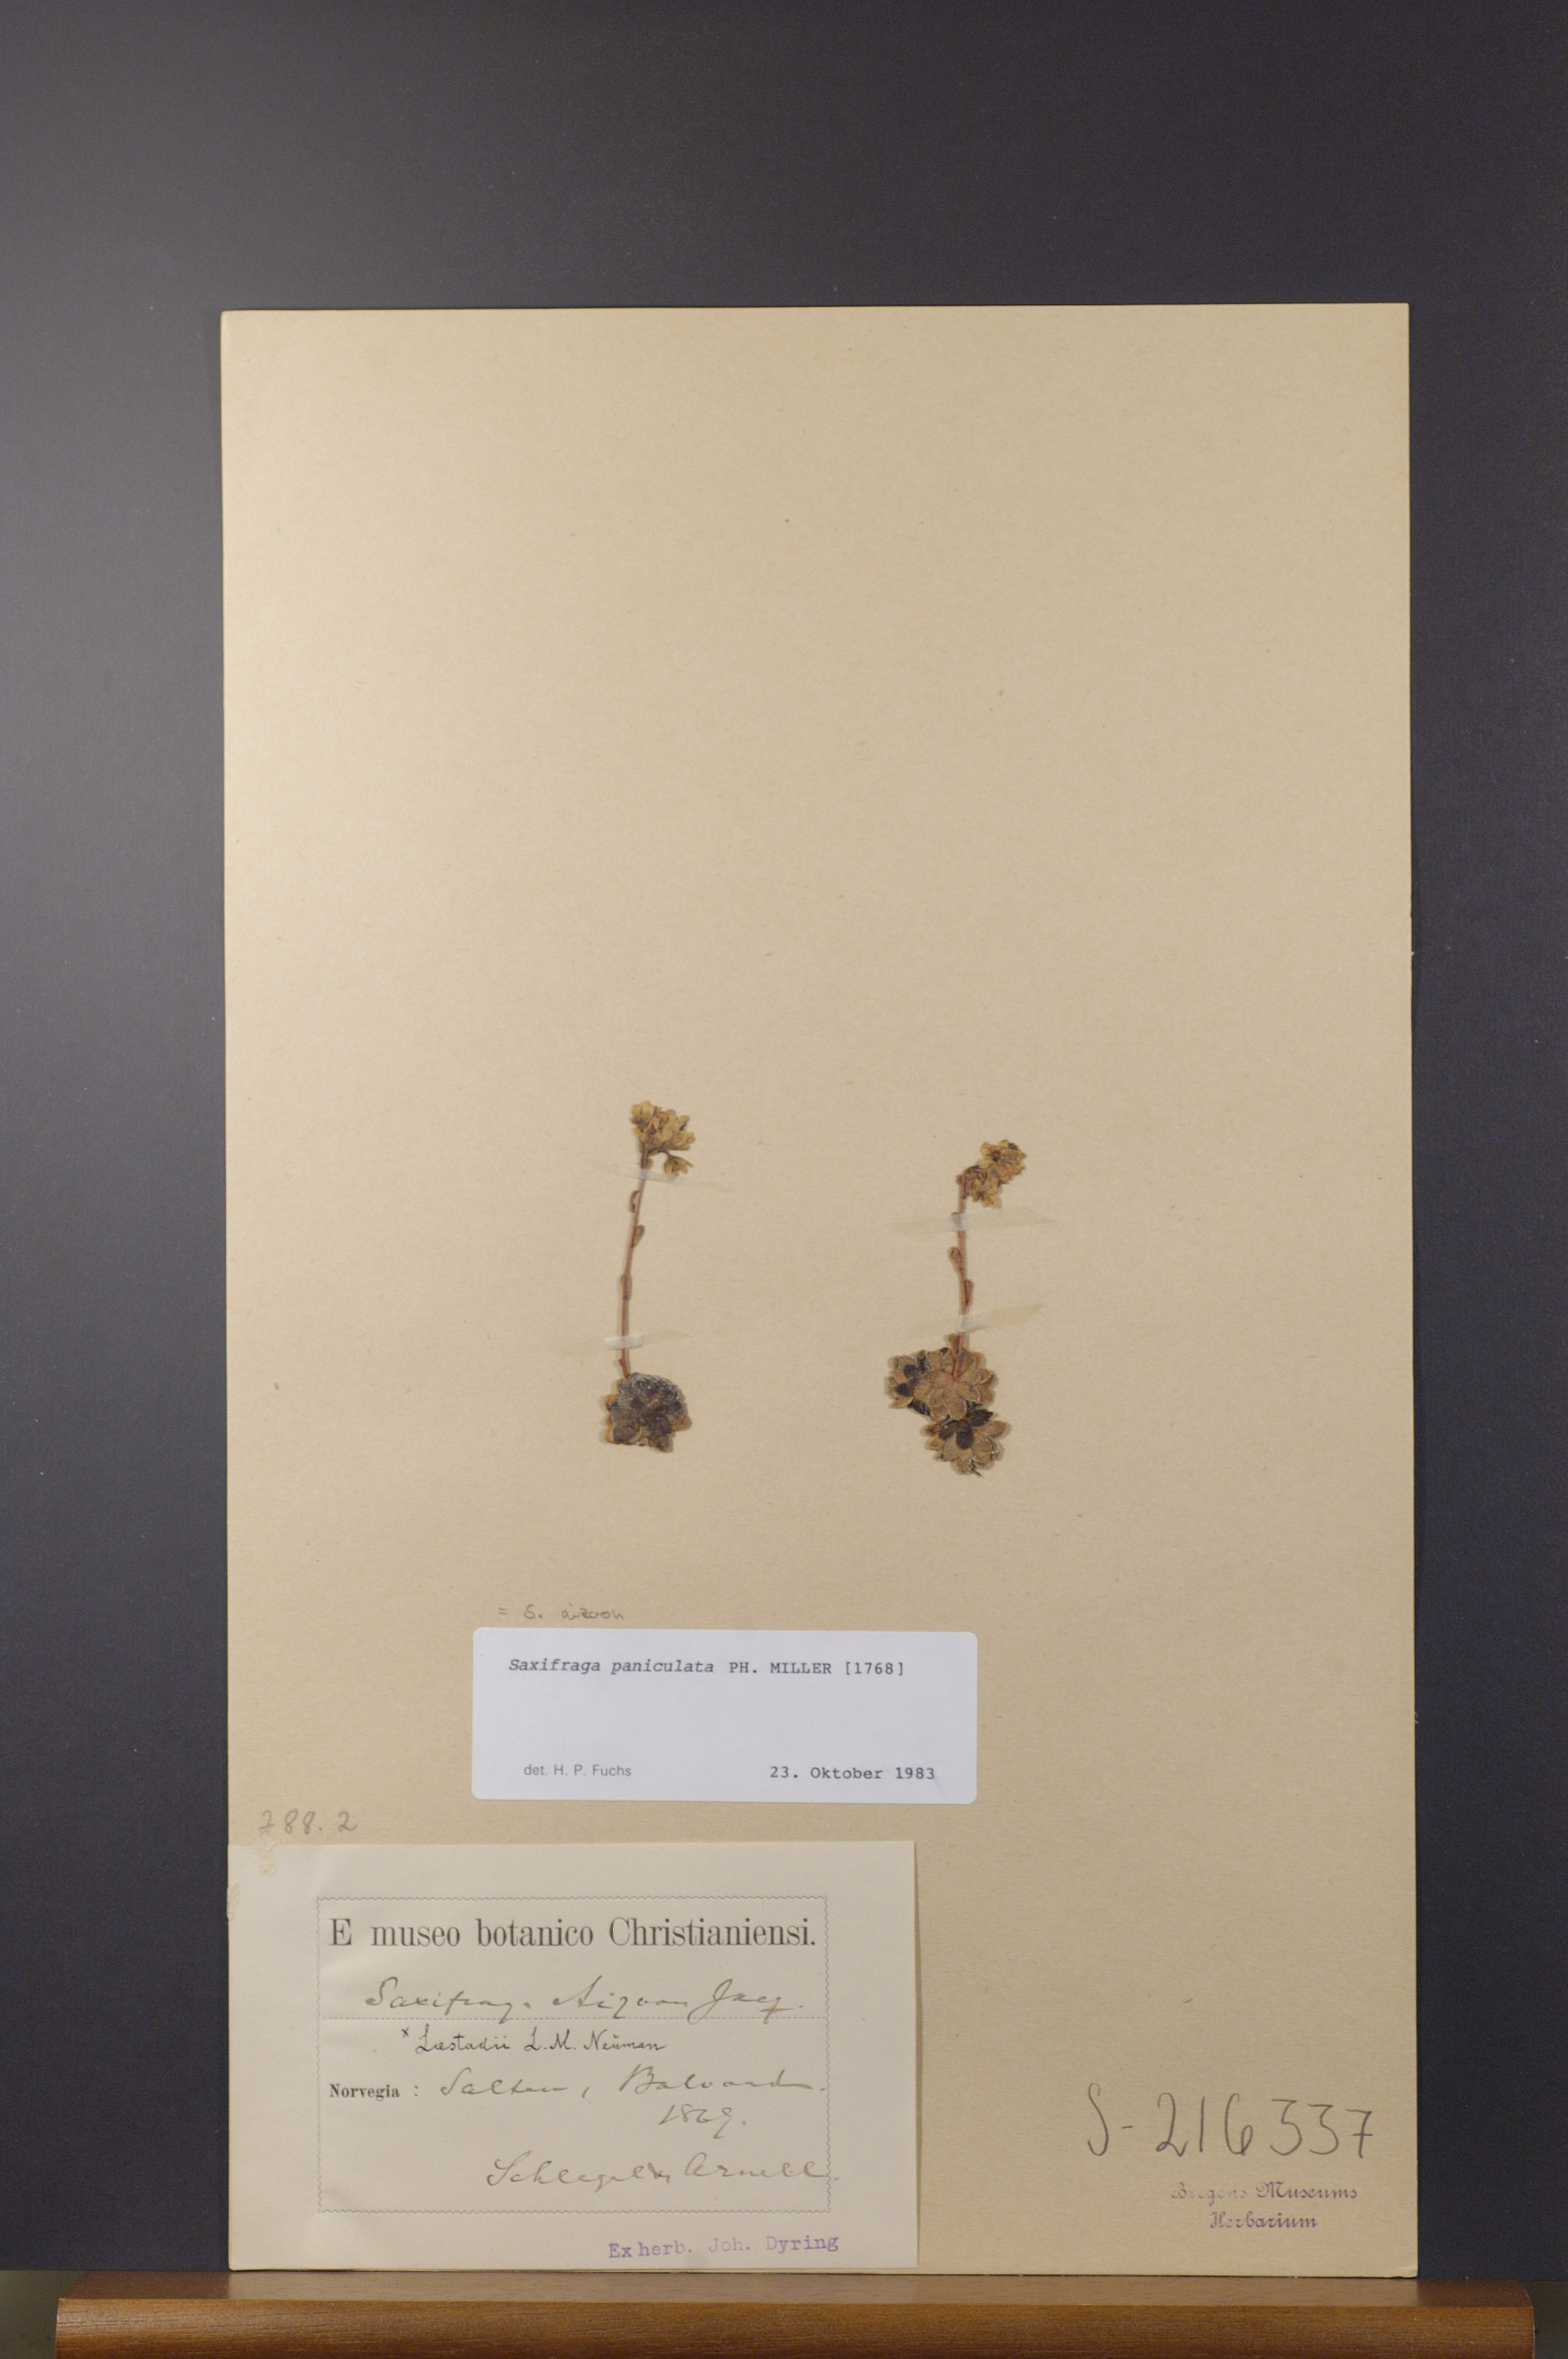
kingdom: Plantae
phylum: Tracheophyta
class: Magnoliopsida
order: Saxifragales
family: Saxifragaceae
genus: Saxifraga
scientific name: Saxifraga paniculata
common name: Livelong saxifrage
